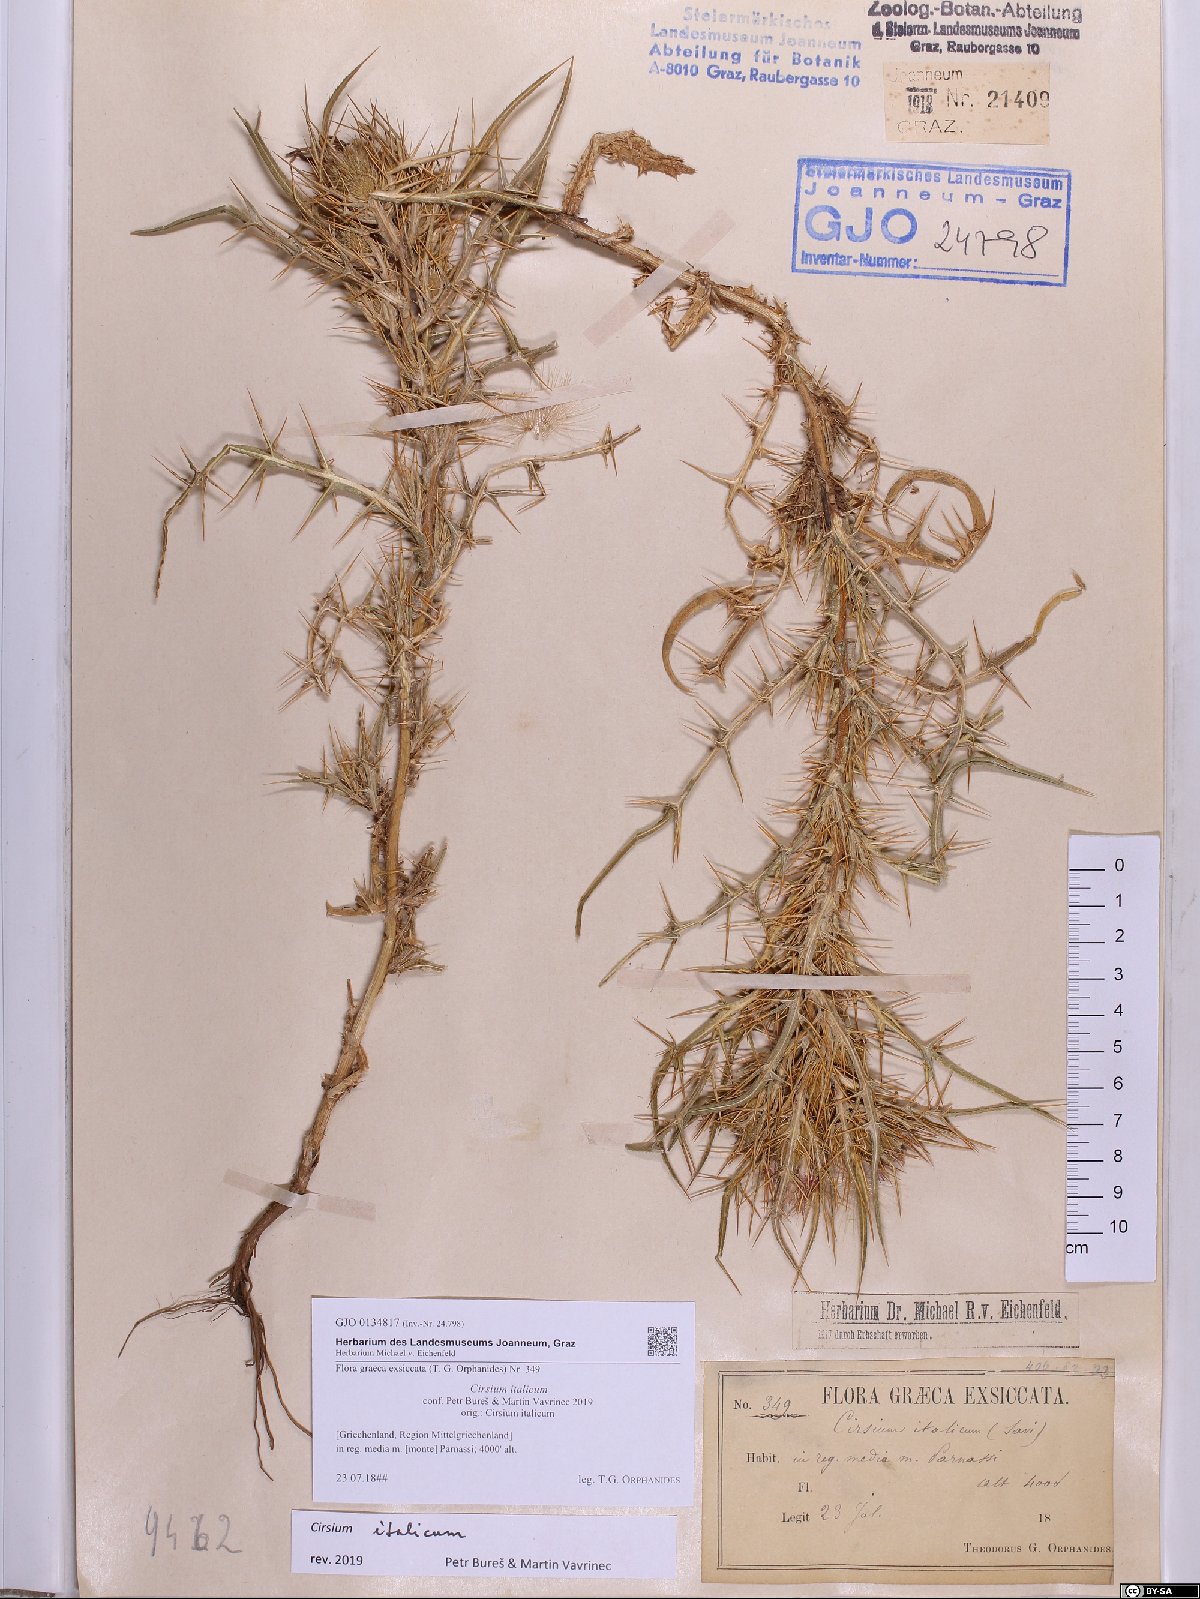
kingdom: Plantae
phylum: Tracheophyta
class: Magnoliopsida
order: Asterales
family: Asteraceae
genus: Epitrachys
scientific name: Epitrachys italica
